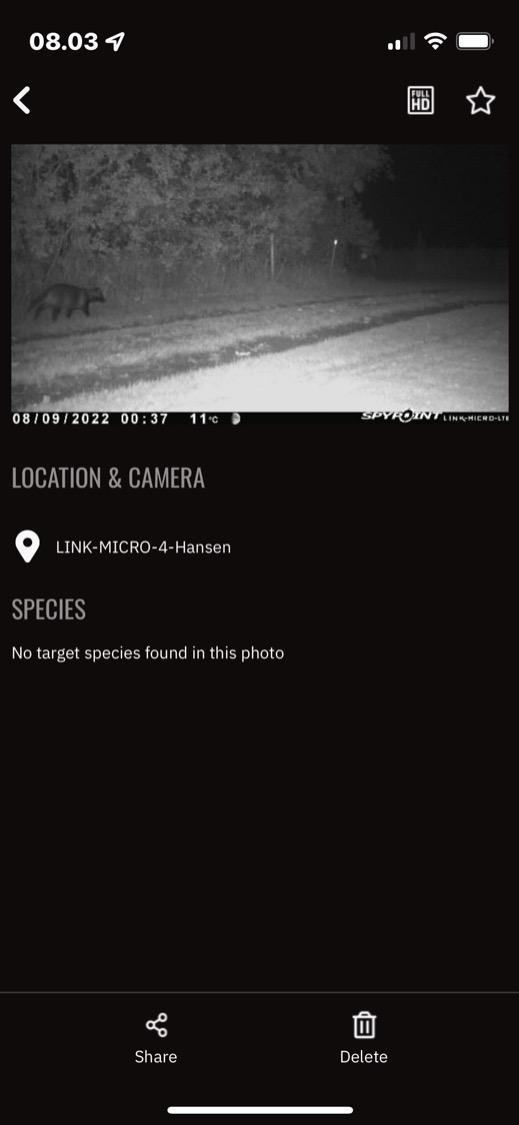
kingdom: Animalia
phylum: Chordata
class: Mammalia
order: Carnivora
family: Canidae
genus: Nyctereutes
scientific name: Nyctereutes procyonoides
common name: Mårhund
